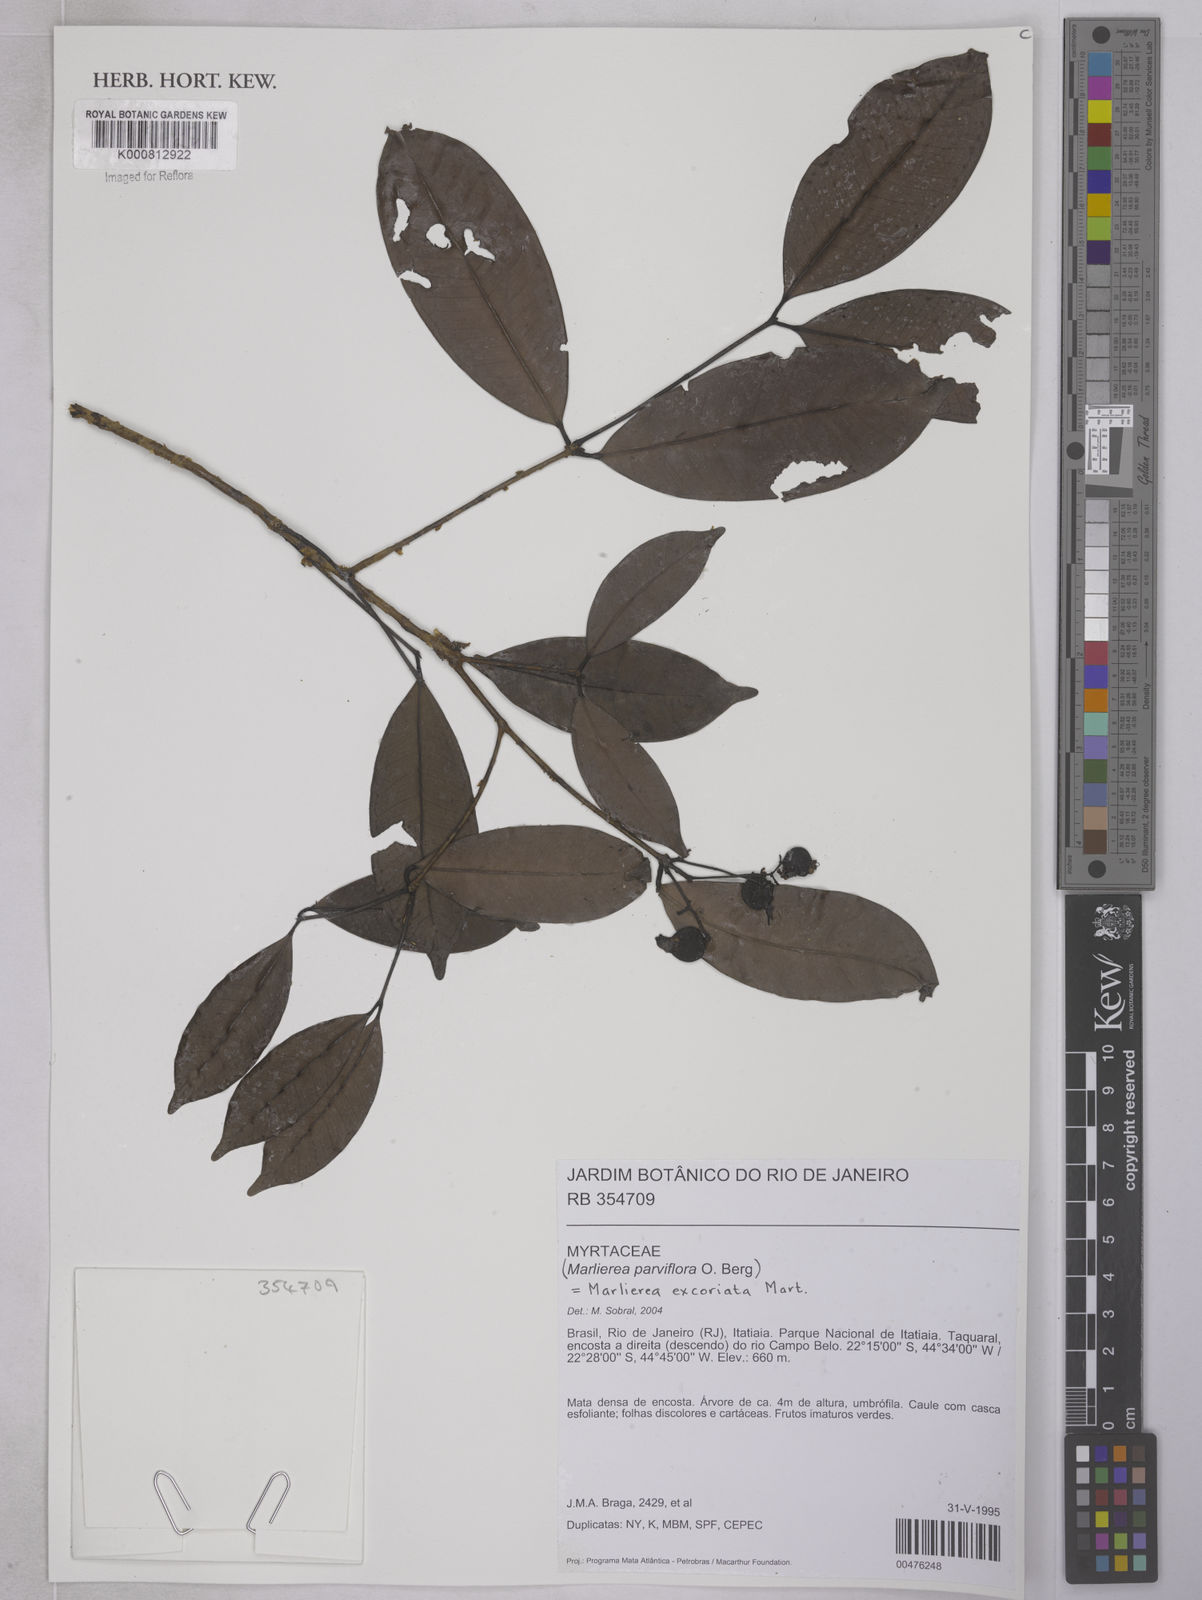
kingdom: Plantae
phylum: Tracheophyta
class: Magnoliopsida
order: Myrtales
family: Myrtaceae
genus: Myrcia
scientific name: Myrcia excoriata
